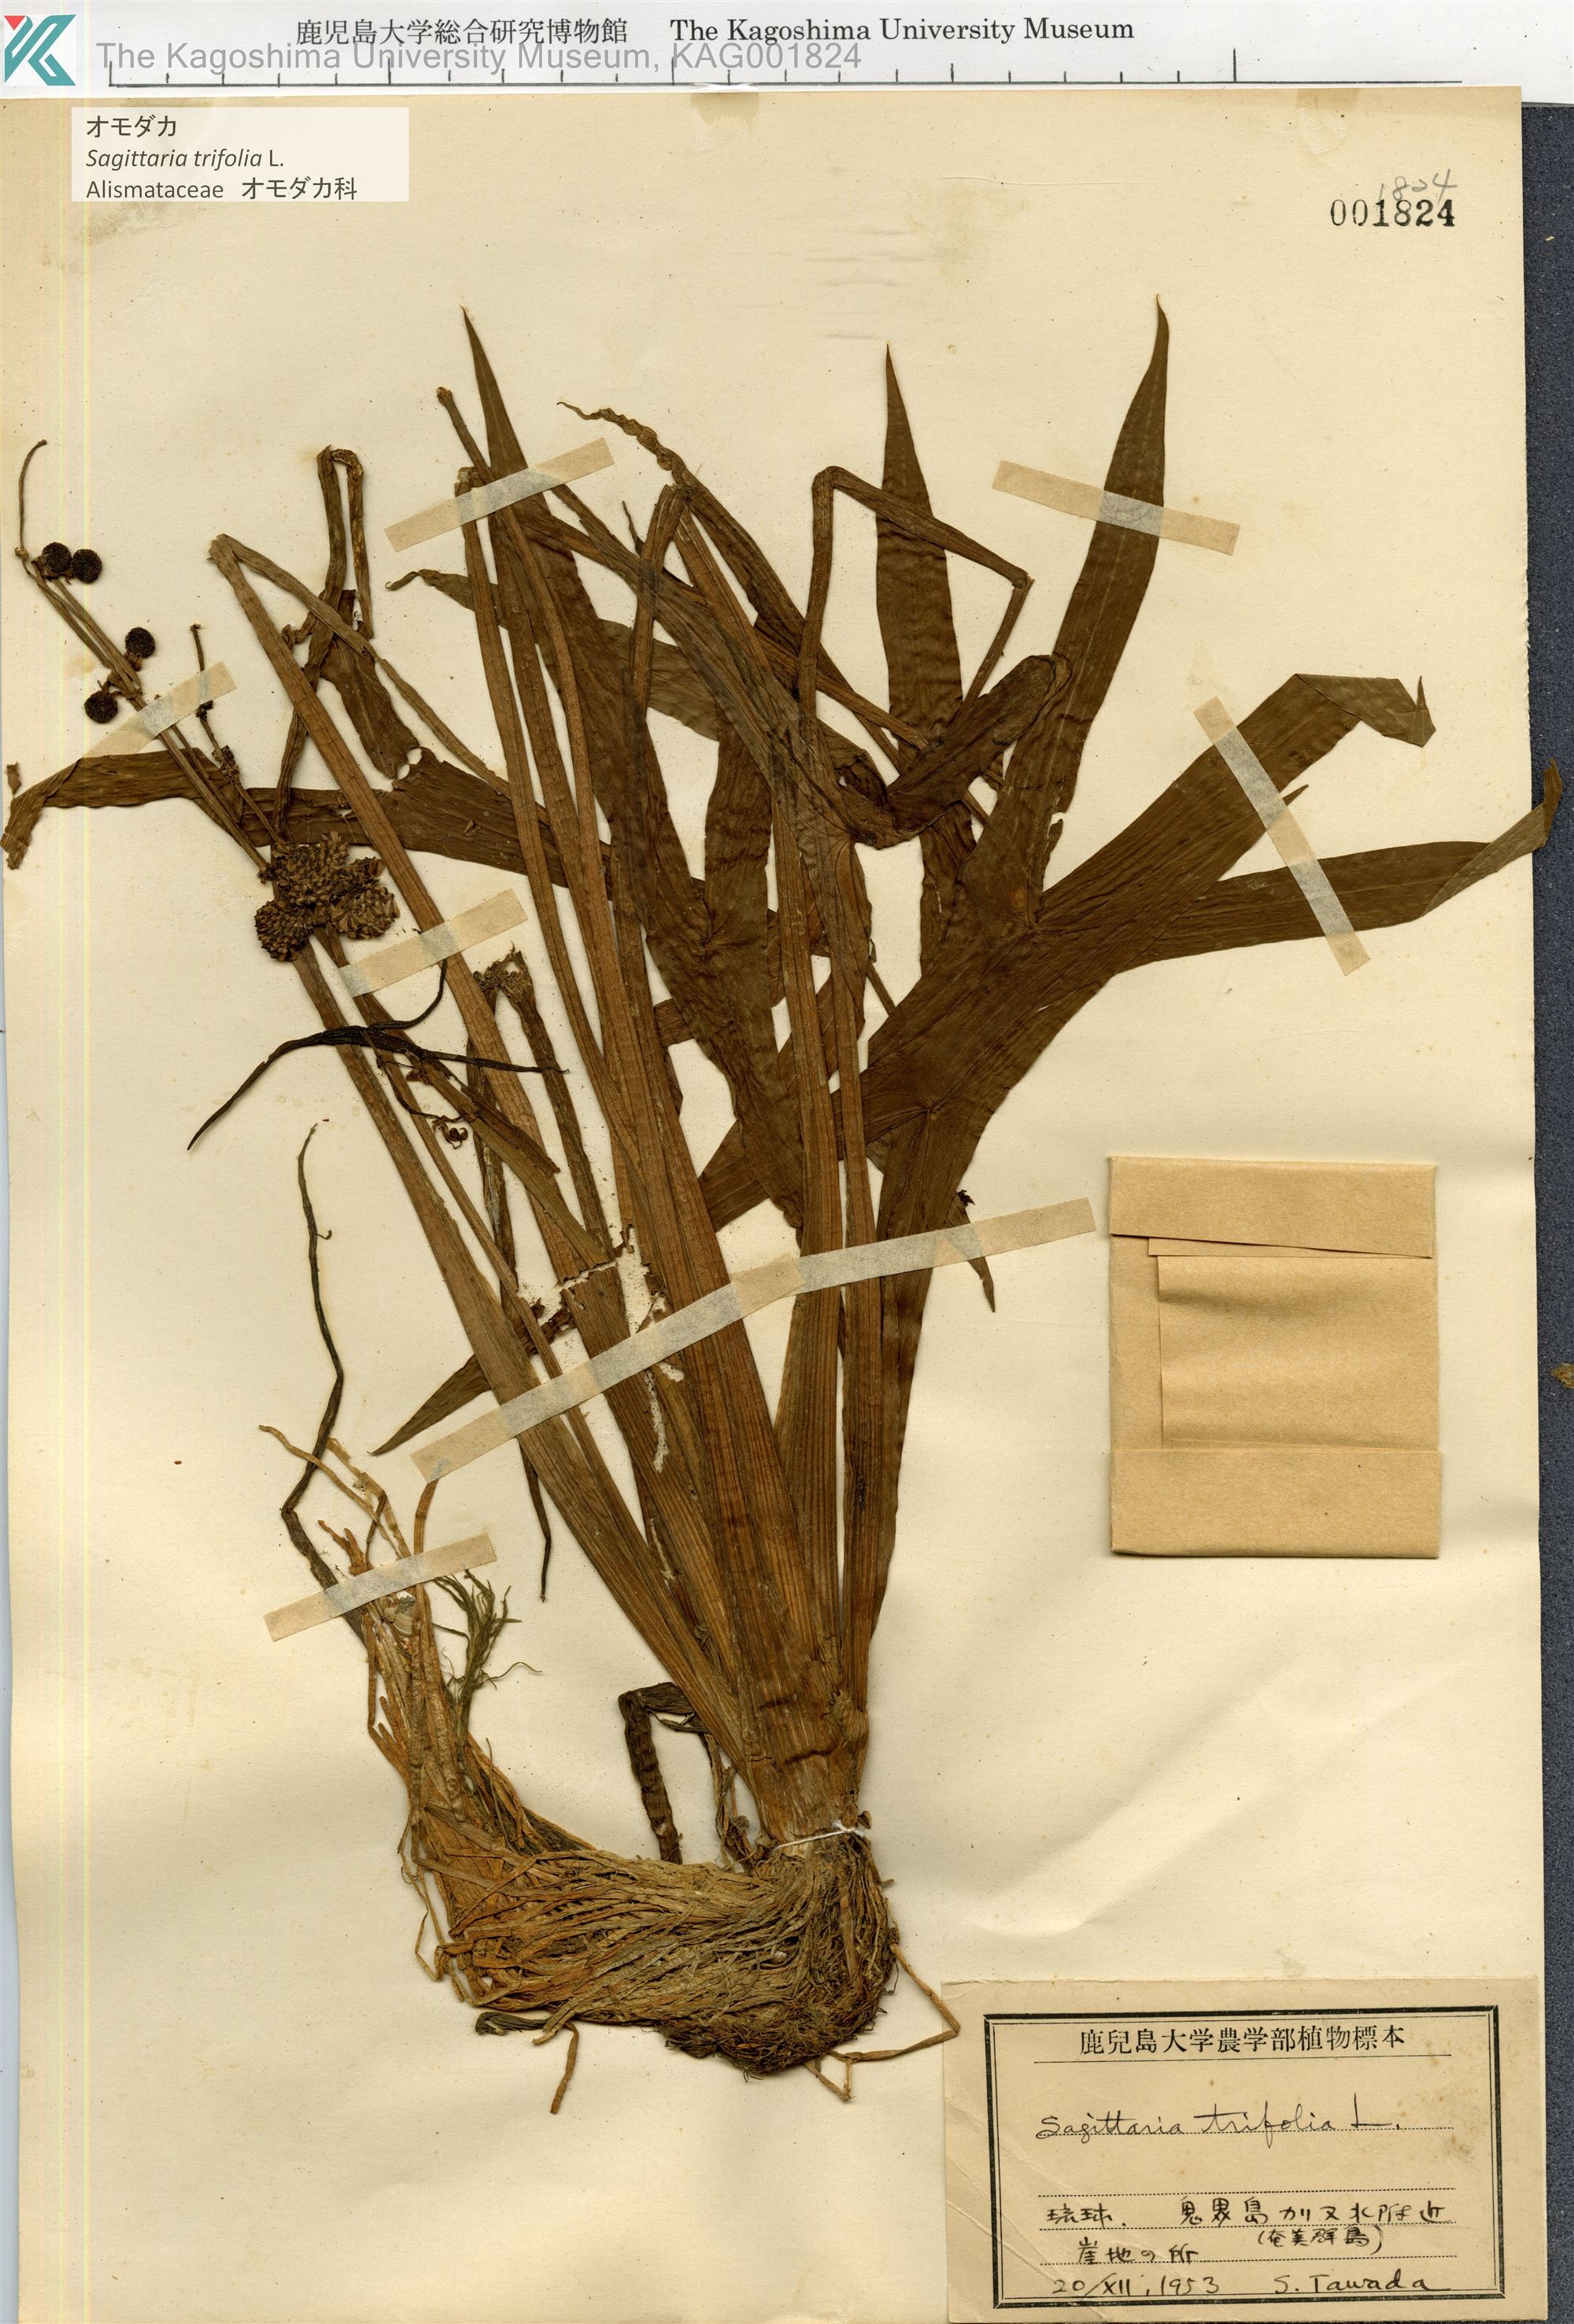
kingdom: Plantae
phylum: Tracheophyta
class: Liliopsida
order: Alismatales
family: Alismataceae
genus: Sagittaria
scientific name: Sagittaria trifolia
